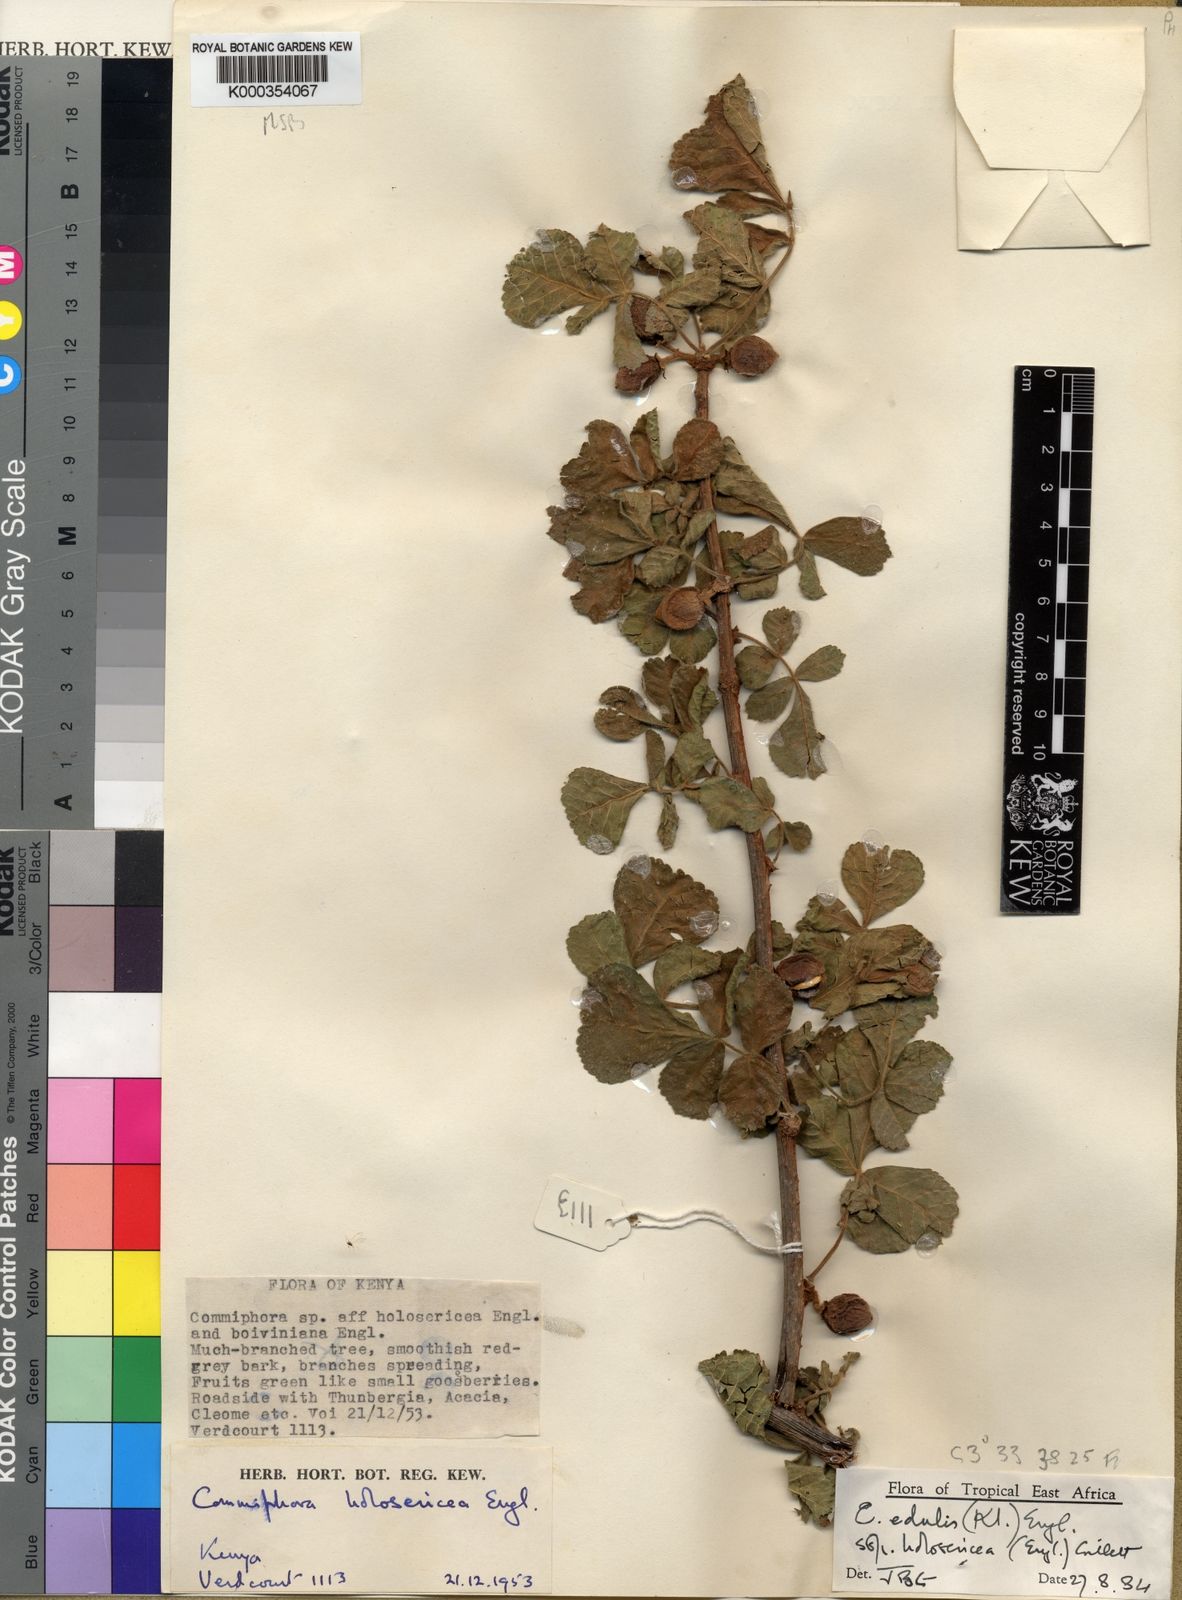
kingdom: Plantae
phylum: Tracheophyta
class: Magnoliopsida
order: Sapindales
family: Burseraceae
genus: Commiphora
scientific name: Commiphora edulis
